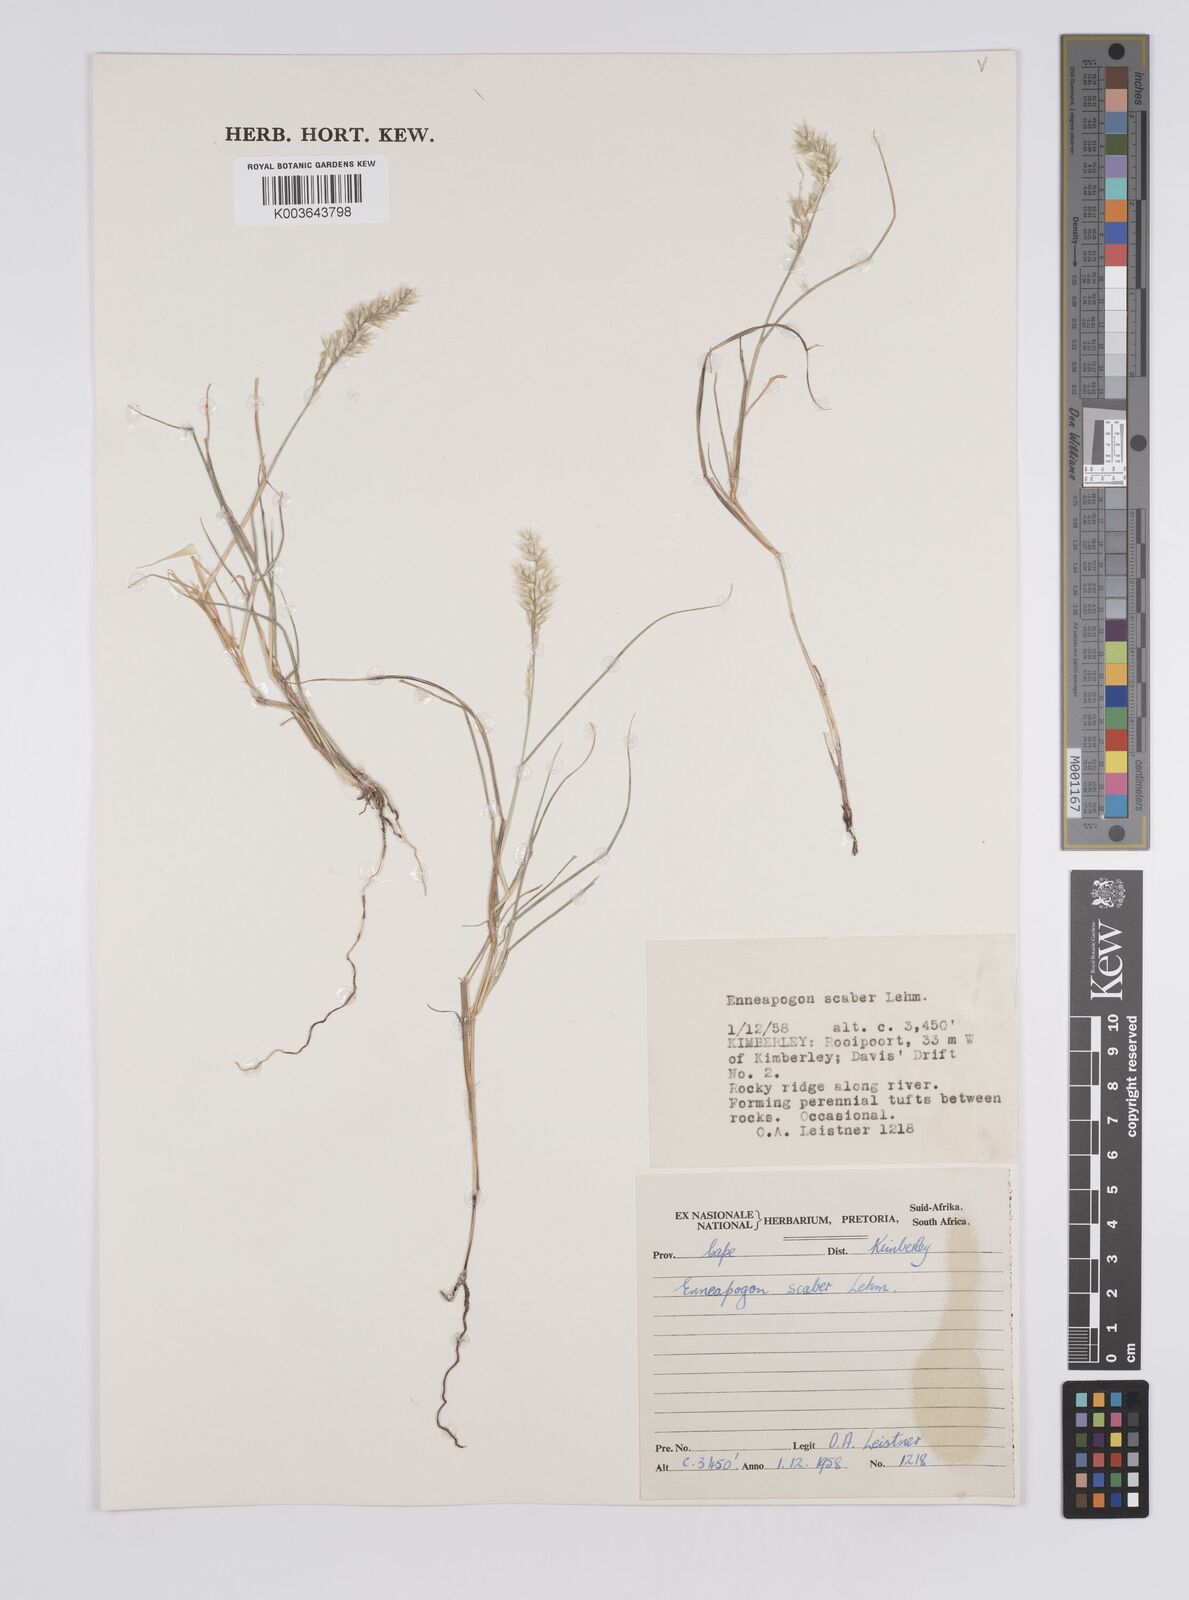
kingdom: Plantae
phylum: Tracheophyta
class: Liliopsida
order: Poales
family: Poaceae
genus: Enneapogon
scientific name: Enneapogon scaber
